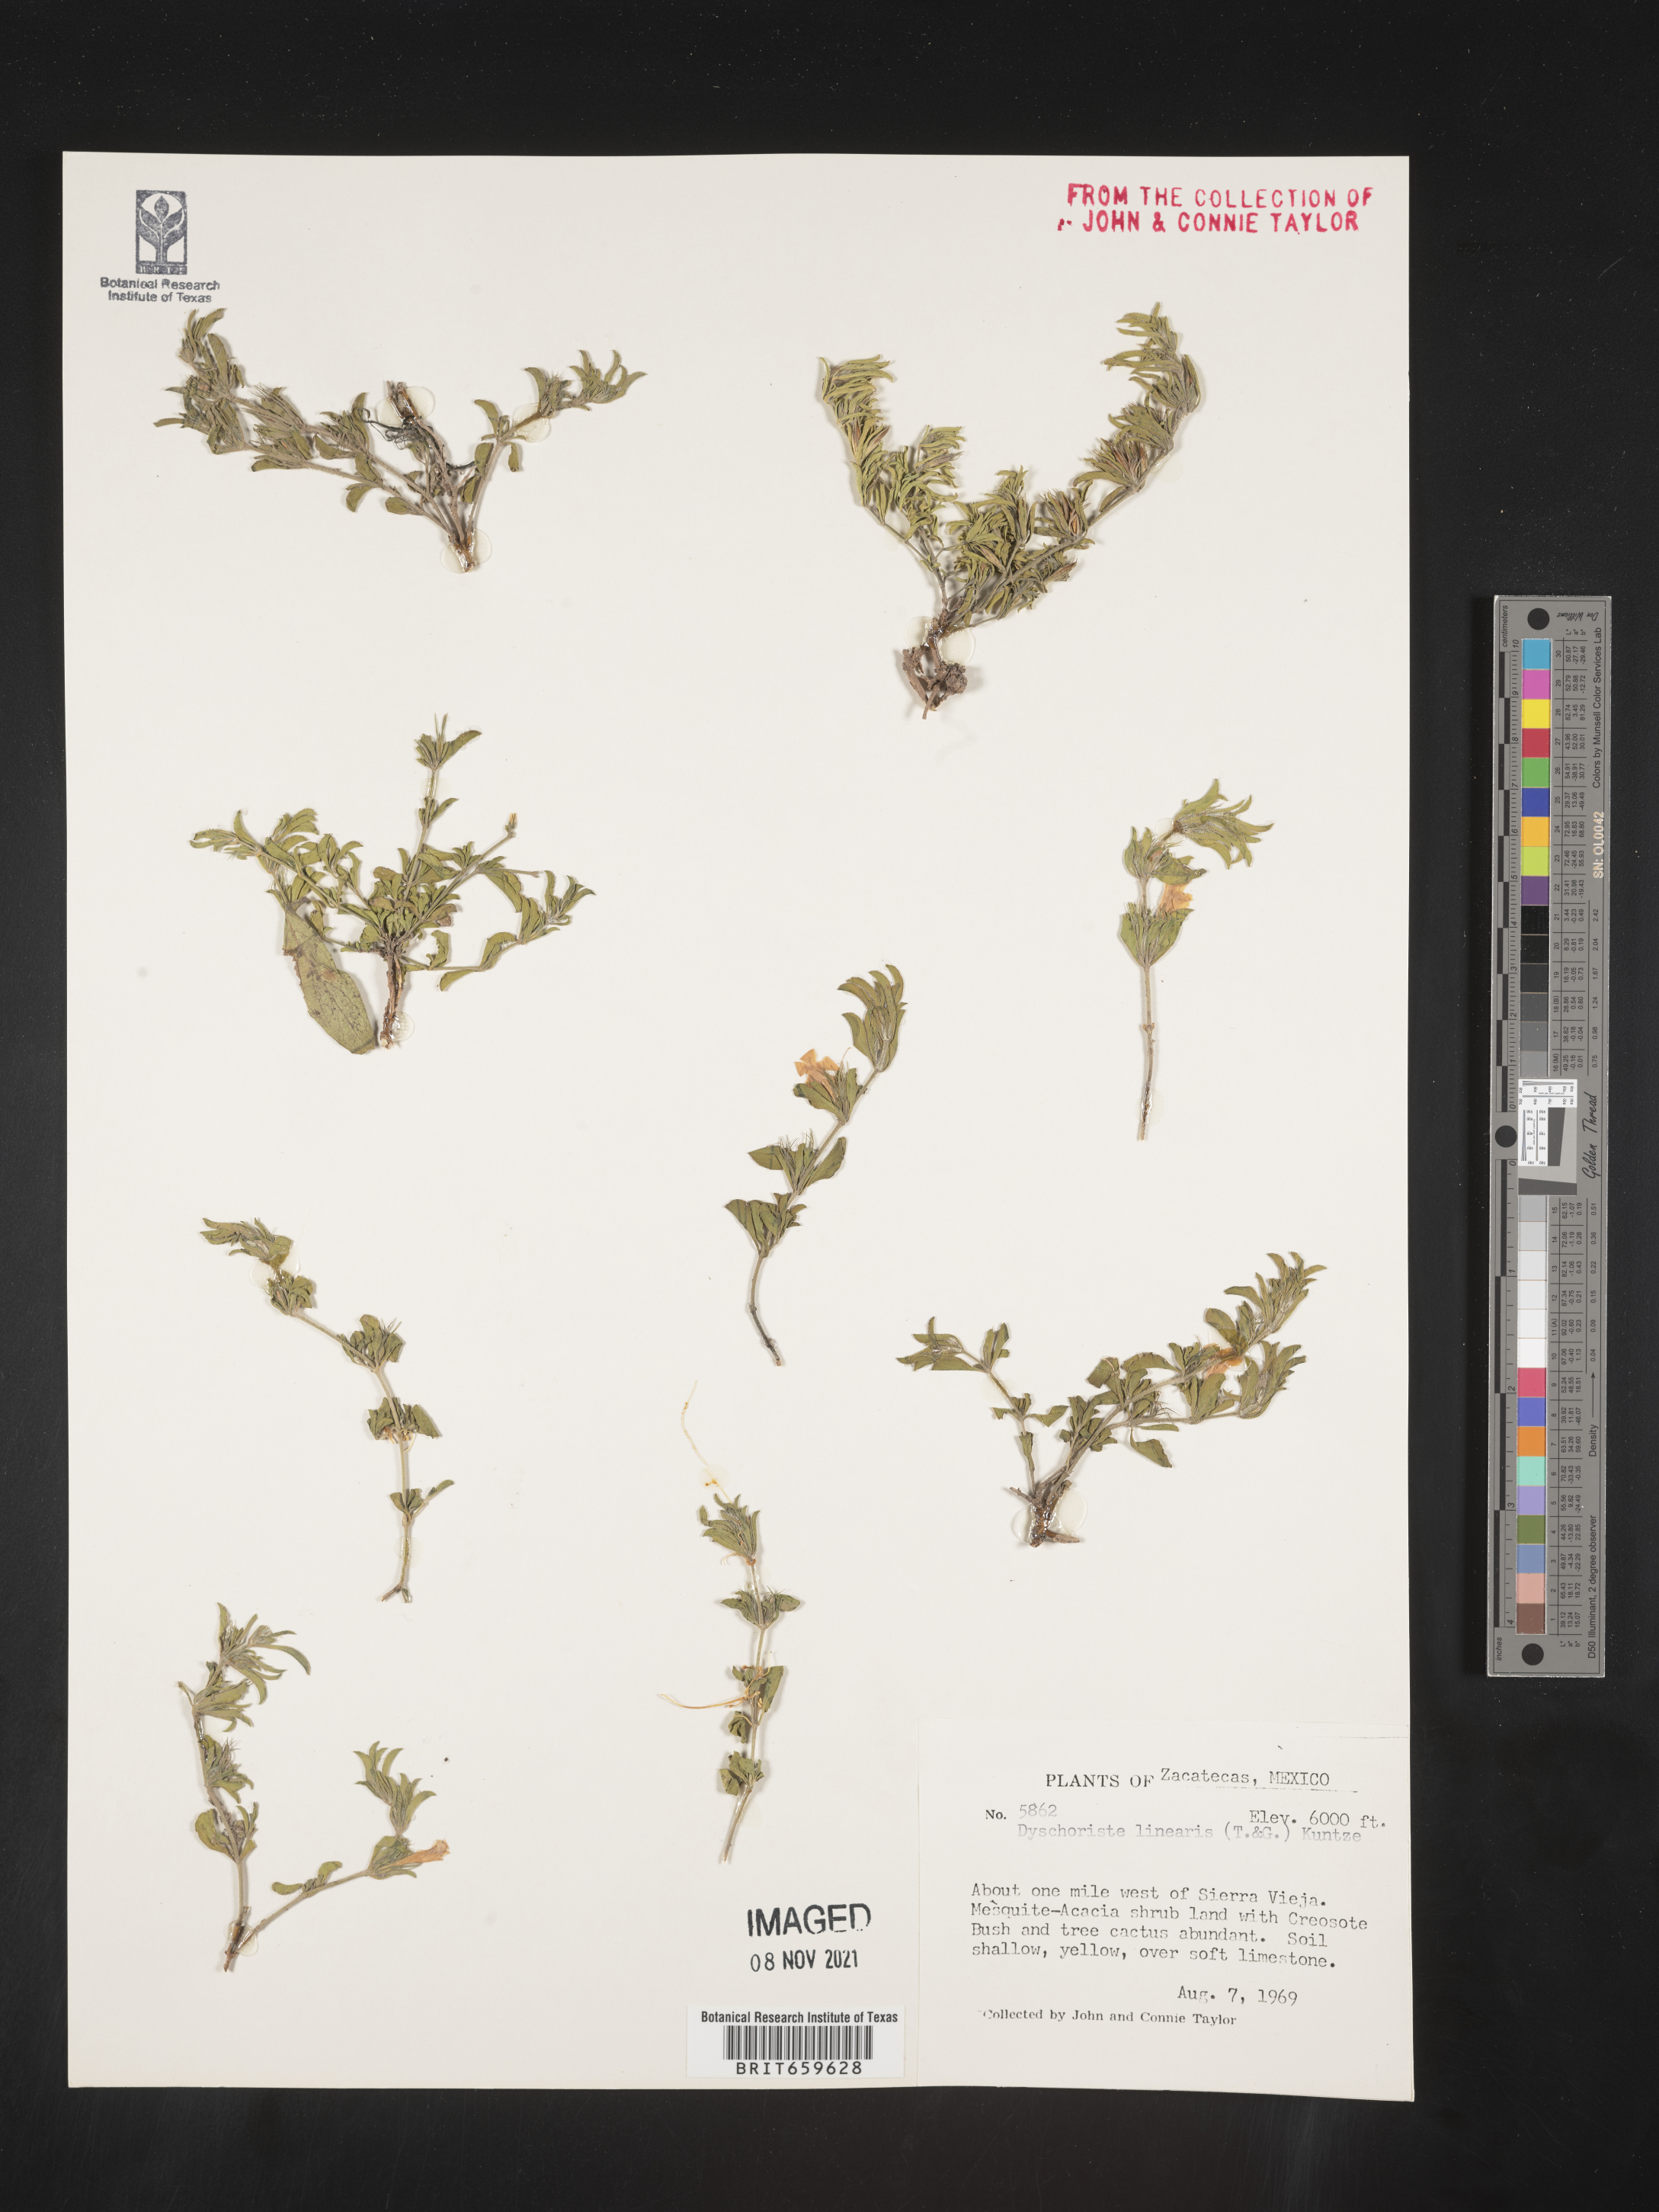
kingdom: Plantae
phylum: Tracheophyta
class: Magnoliopsida
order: Lamiales
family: Acanthaceae
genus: Dyschoriste
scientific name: Dyschoriste
